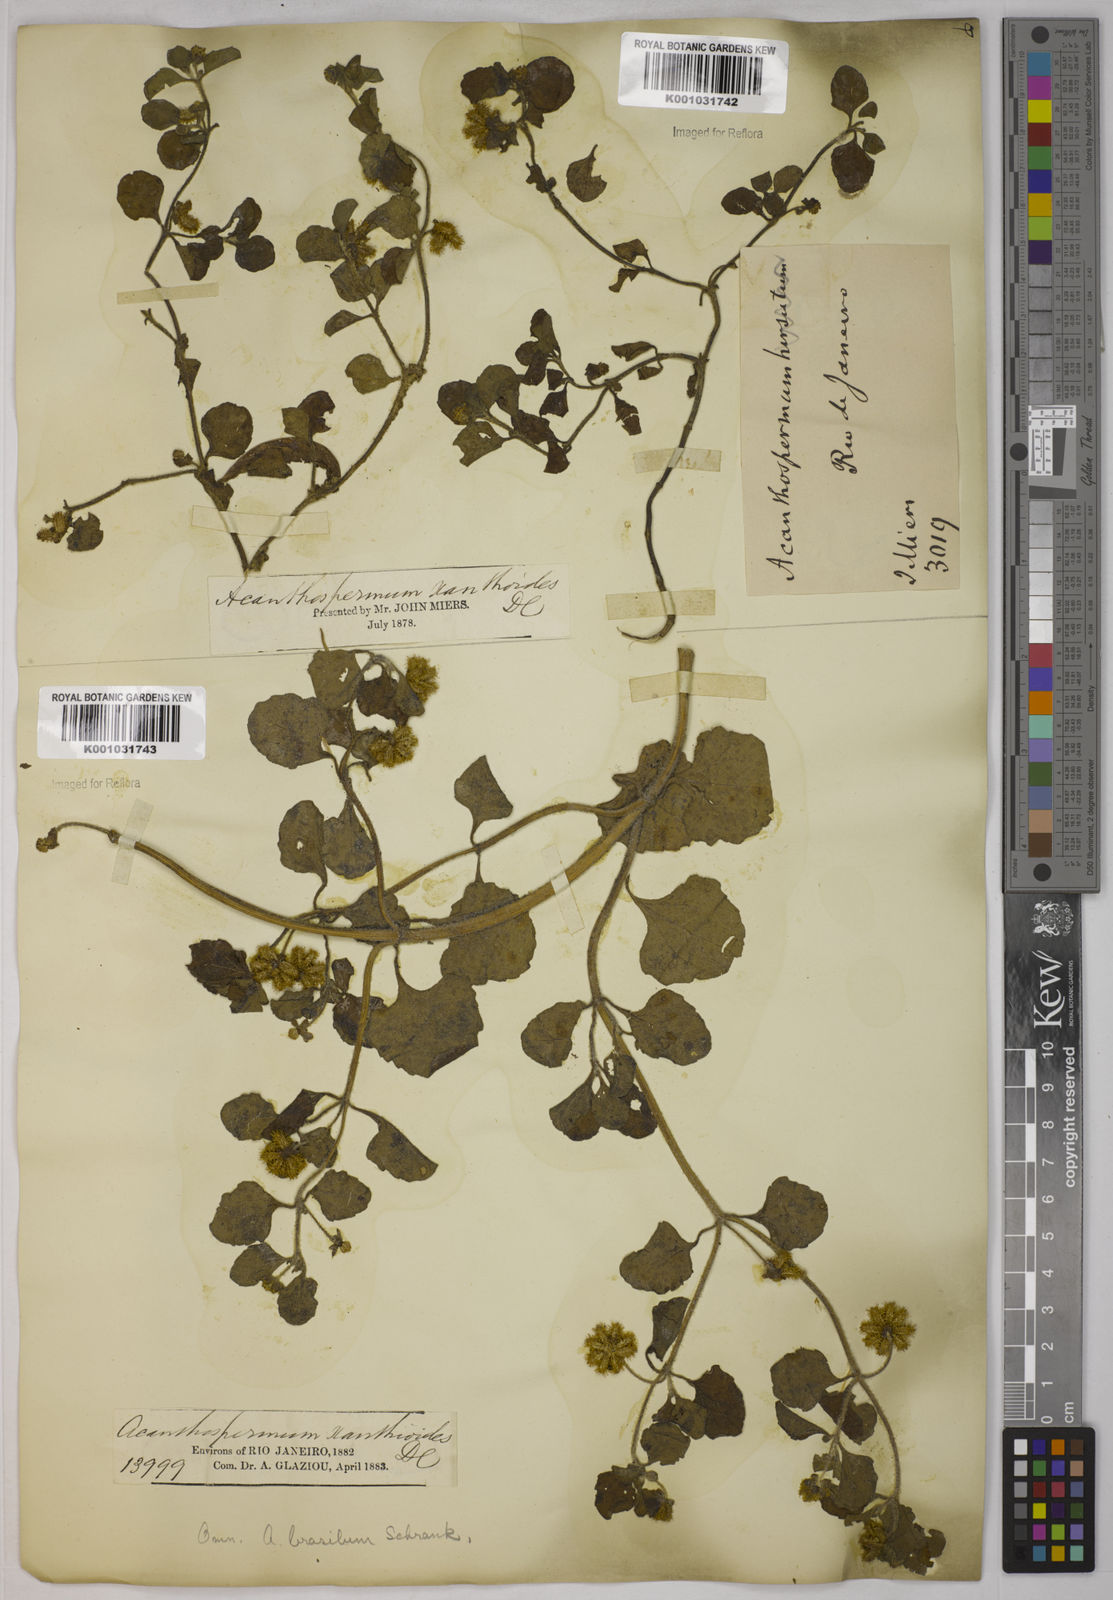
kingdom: Plantae
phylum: Tracheophyta
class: Magnoliopsida
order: Asterales
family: Asteraceae
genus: Acanthospermum
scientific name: Acanthospermum australe
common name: Paraguayan starbur
